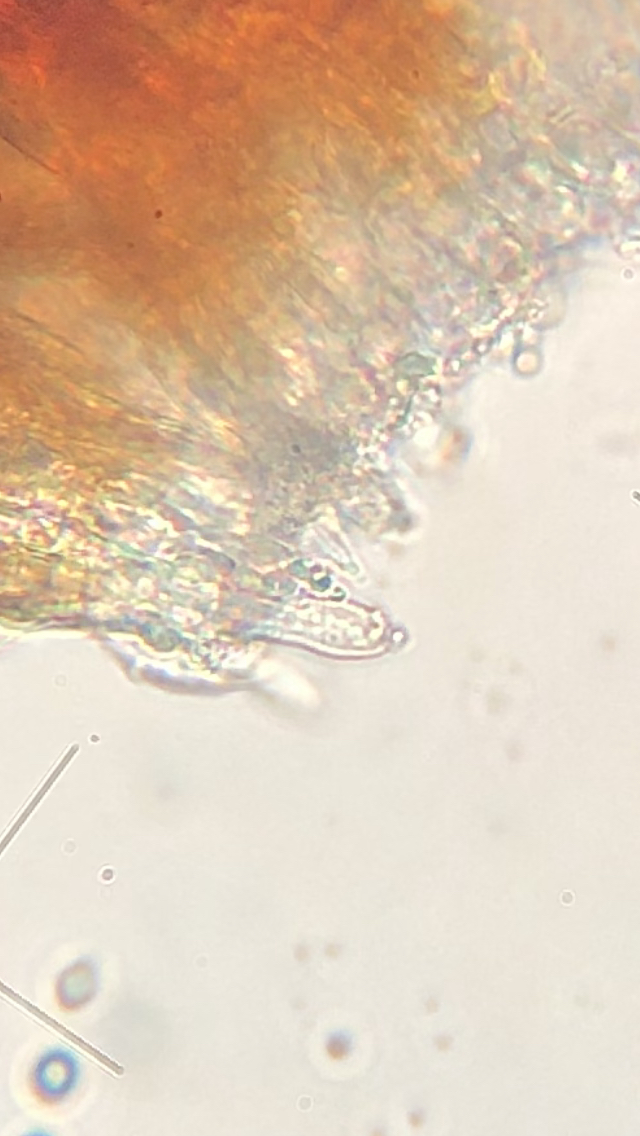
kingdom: Fungi
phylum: Basidiomycota
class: Agaricomycetes
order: Russulales
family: Peniophoraceae
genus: Peniophora
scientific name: Peniophora lycii
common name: grynet voksskind
